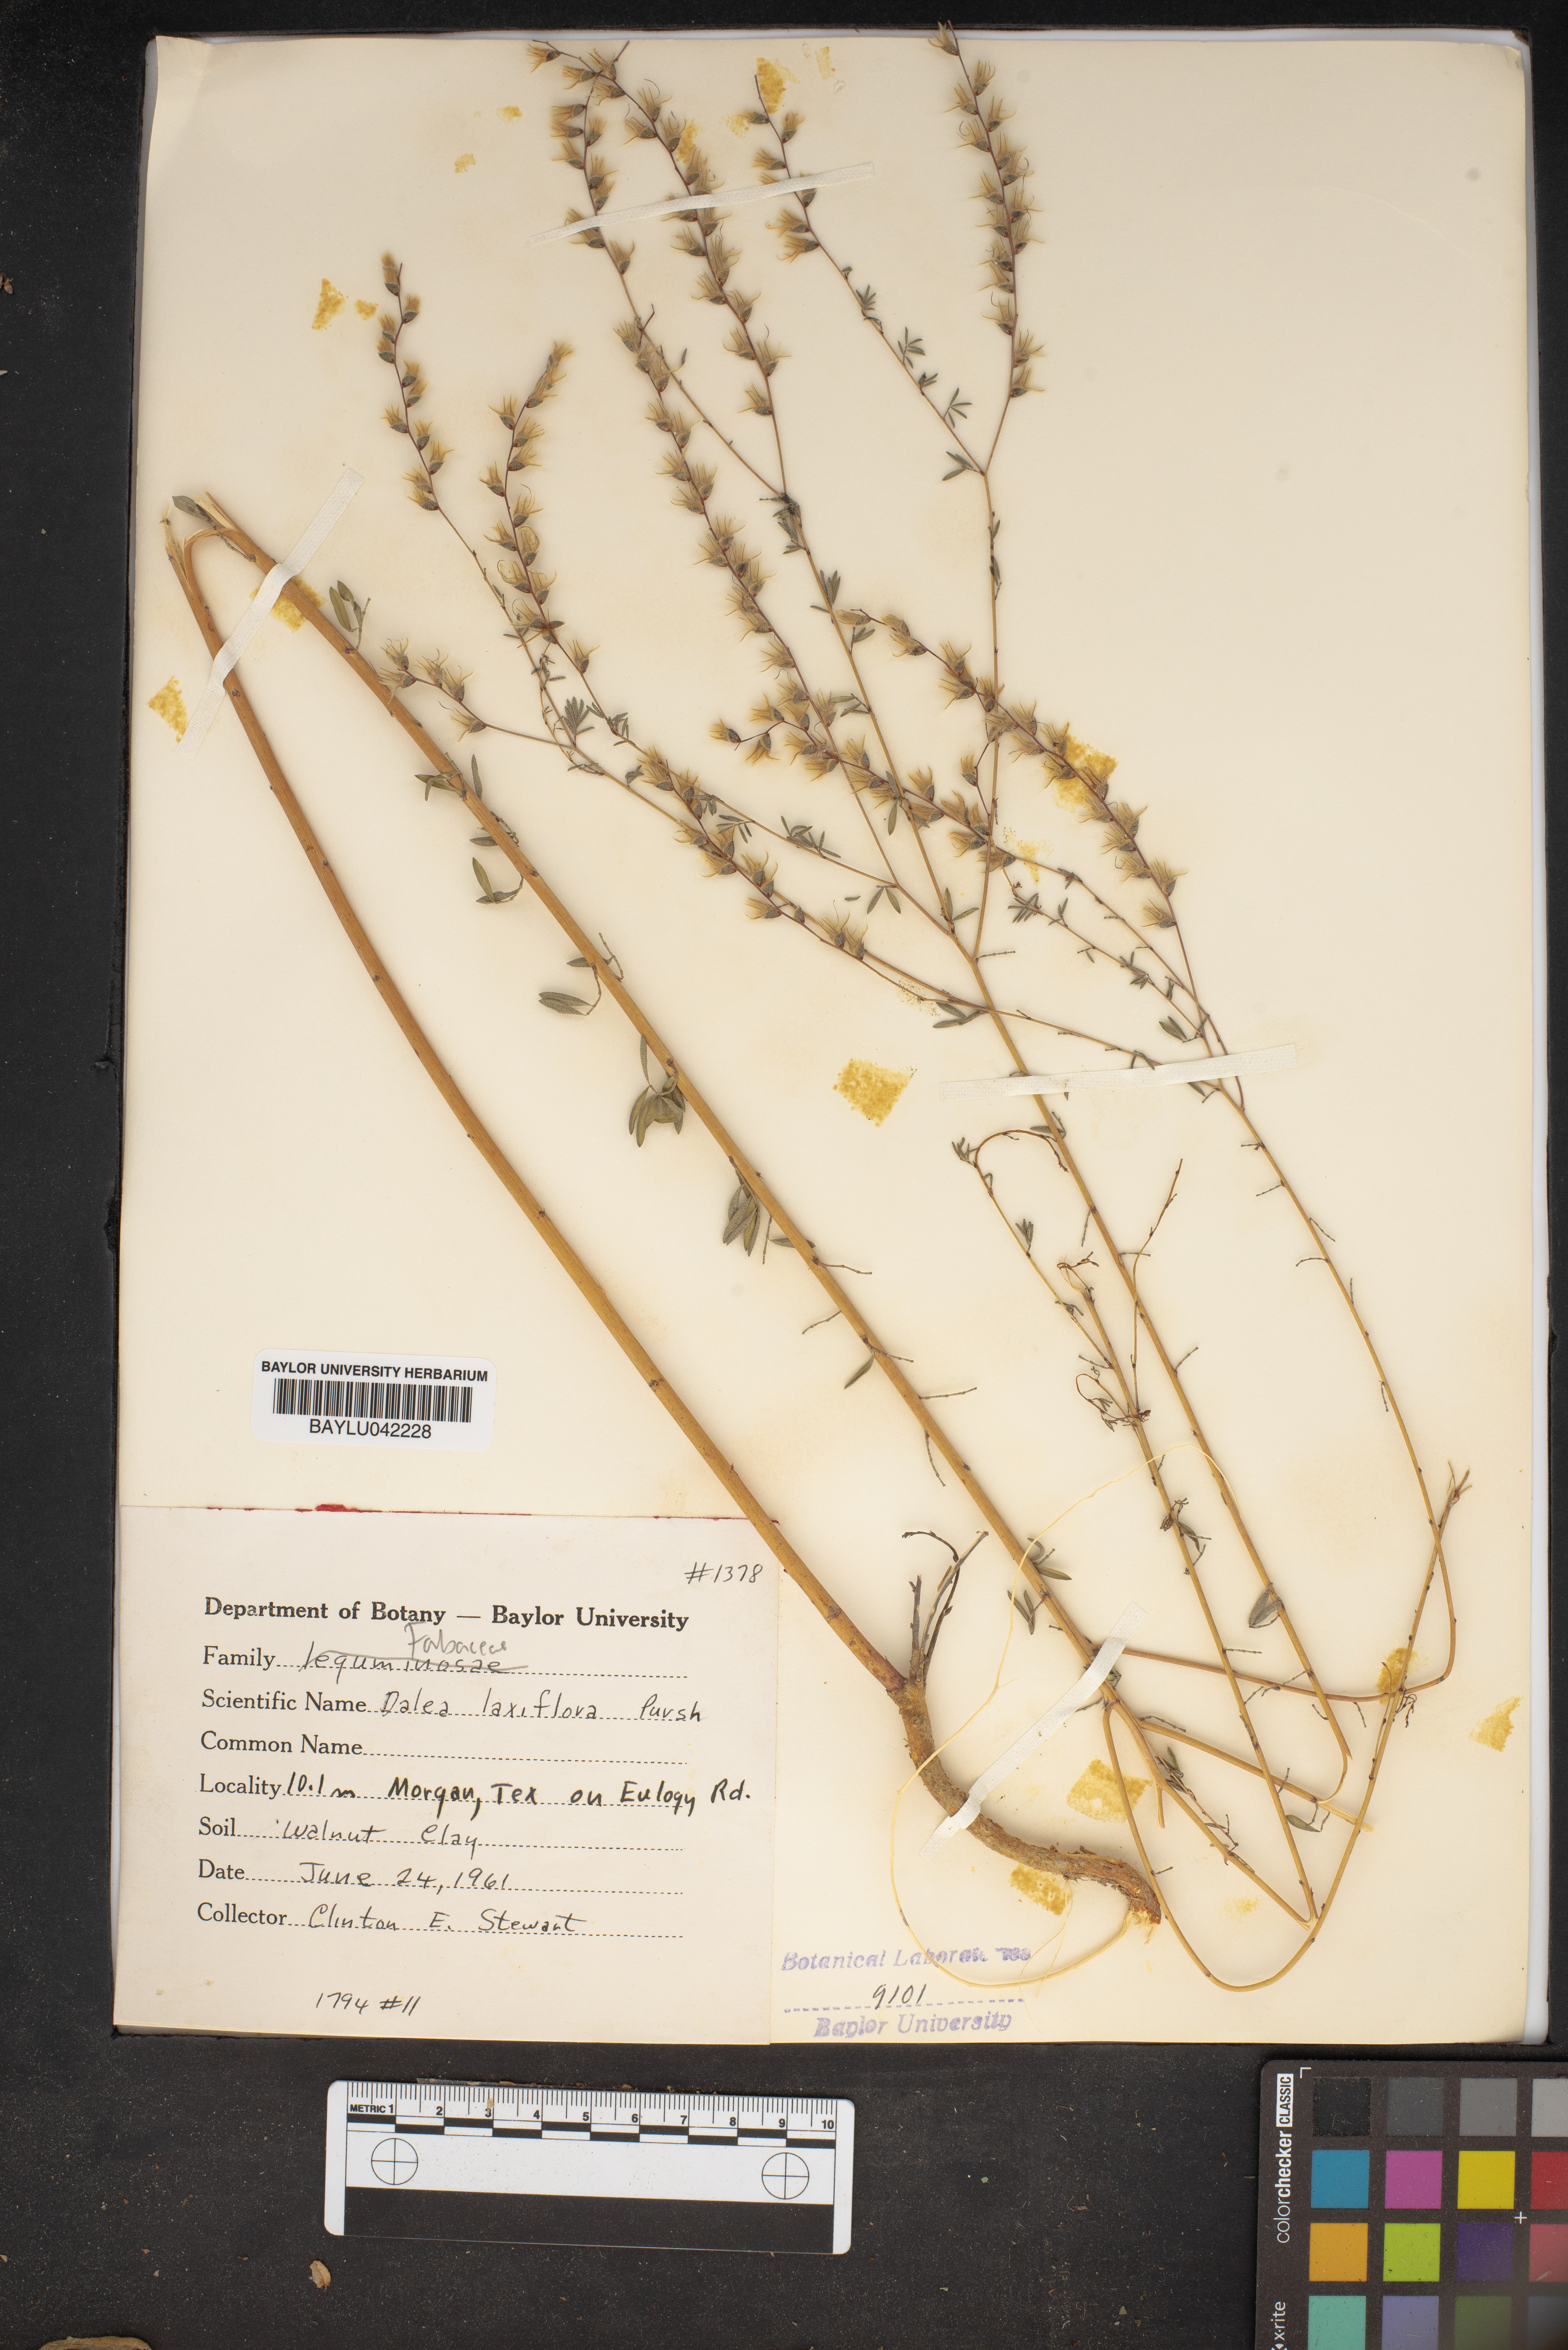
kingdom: Plantae
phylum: Tracheophyta
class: Magnoliopsida
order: Fabales
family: Fabaceae
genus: Dalea
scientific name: Dalea hegewischiana
